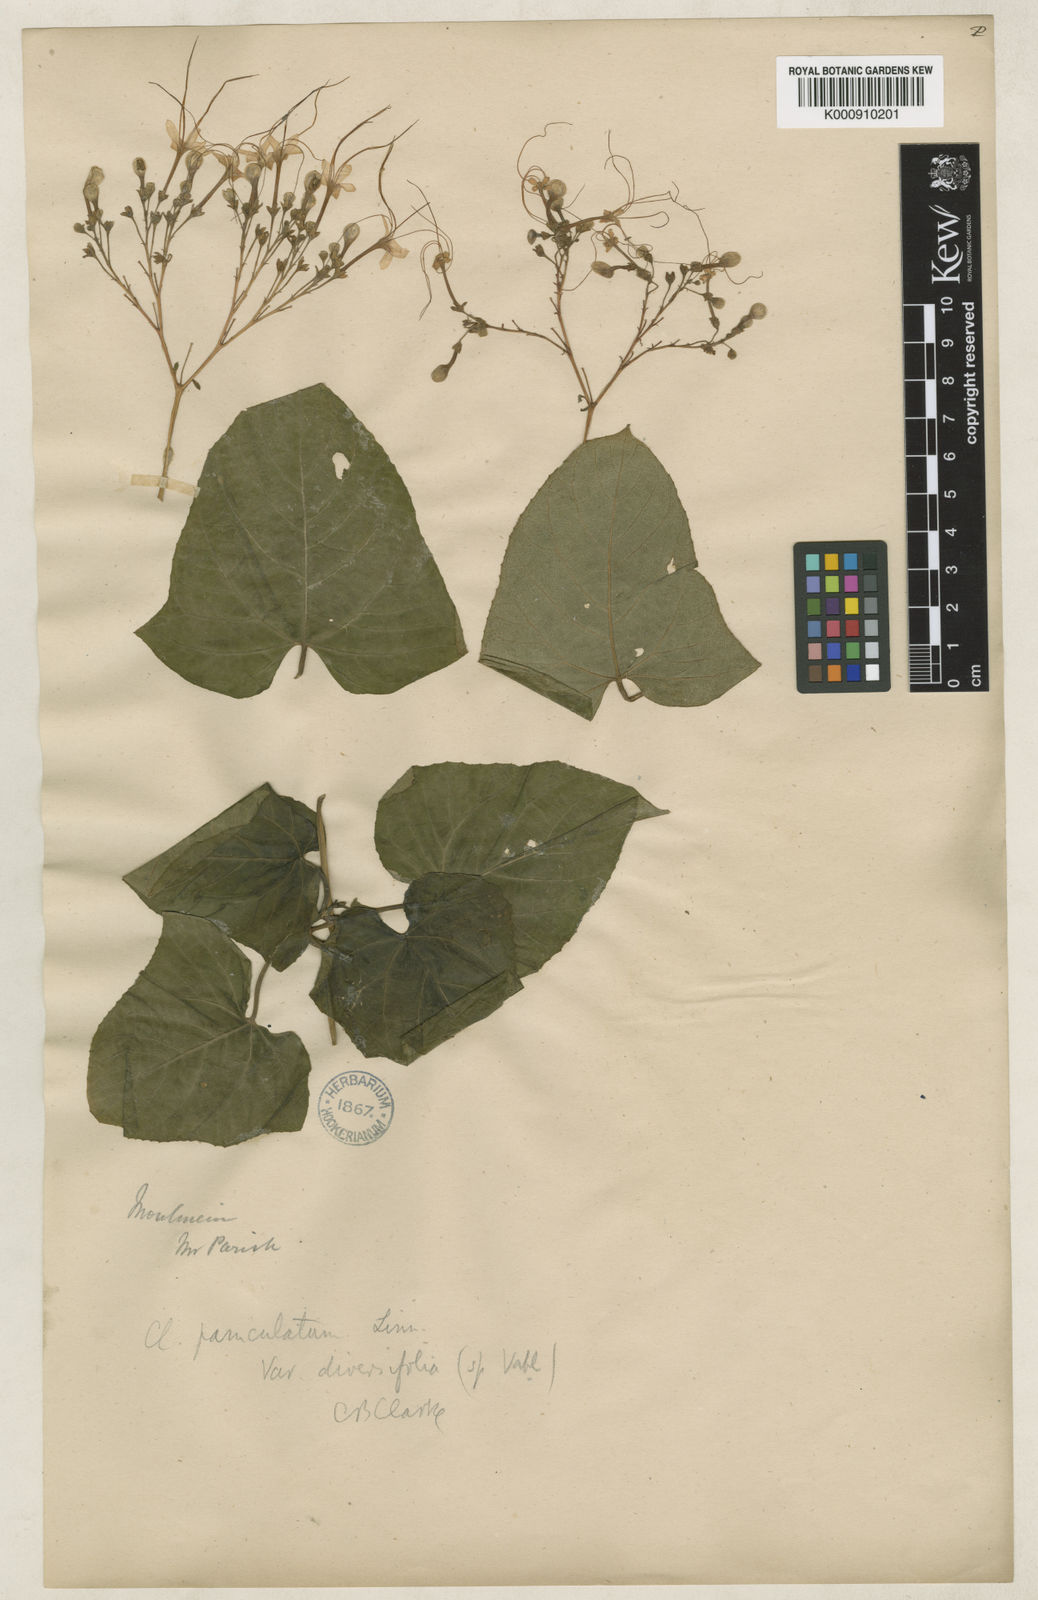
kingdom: Plantae
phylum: Tracheophyta
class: Magnoliopsida
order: Lamiales
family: Lamiaceae
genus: Clerodendrum
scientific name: Clerodendrum paniculatum
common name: Pagoda-flower
